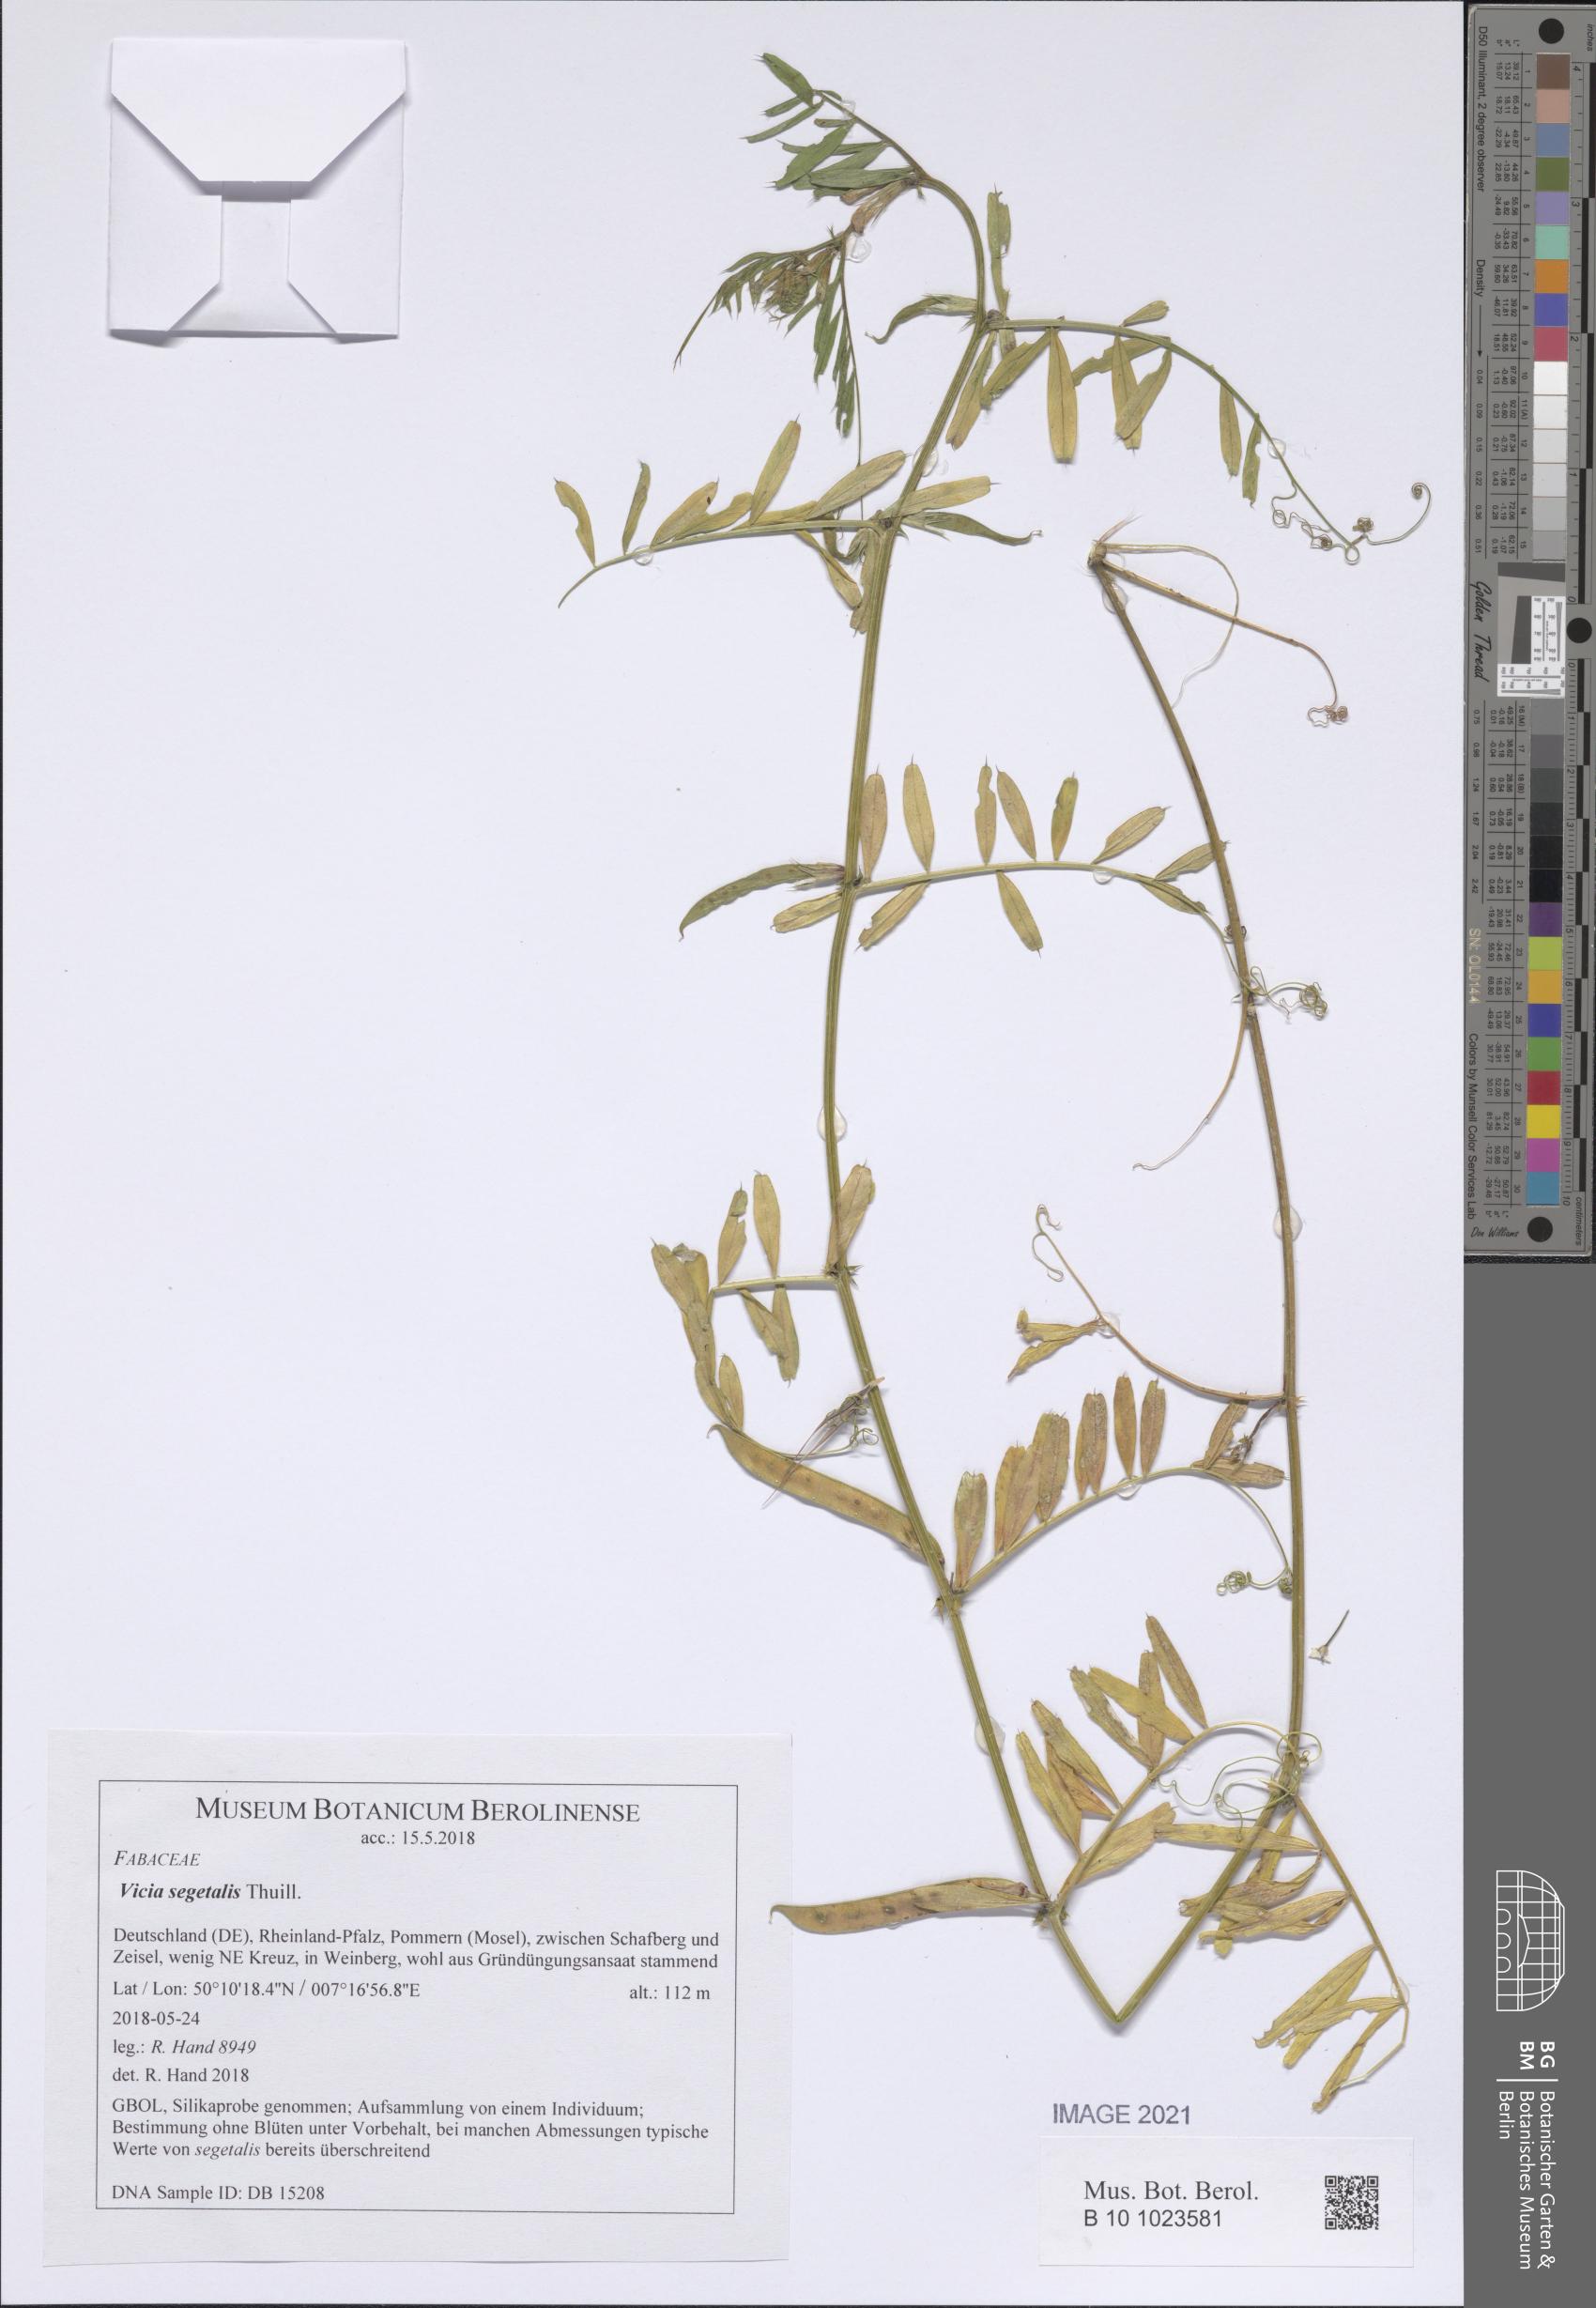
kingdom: Plantae
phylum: Tracheophyta
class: Magnoliopsida
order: Fabales
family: Fabaceae
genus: Vicia
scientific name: Vicia sativa
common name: Garden vetch
